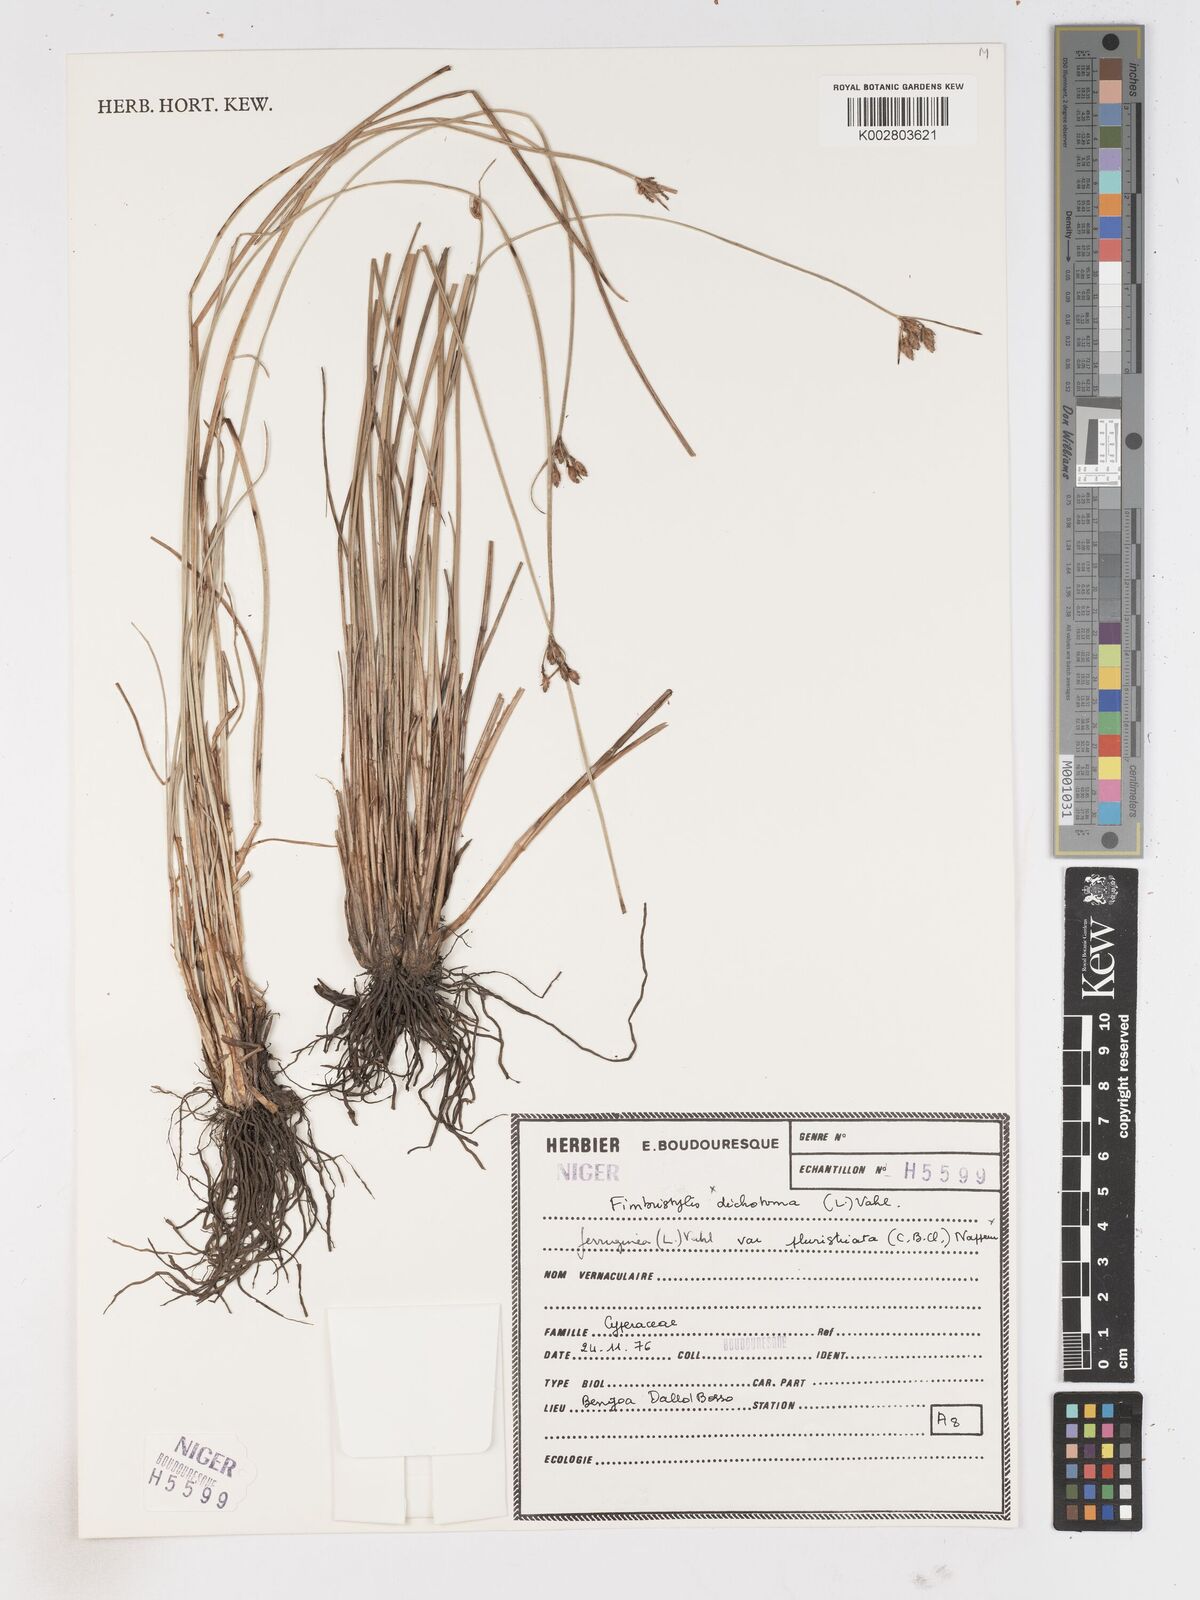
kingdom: Plantae
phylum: Tracheophyta
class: Liliopsida
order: Poales
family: Cyperaceae
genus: Fimbristylis
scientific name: Fimbristylis dichotoma
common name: Forked fimbry
